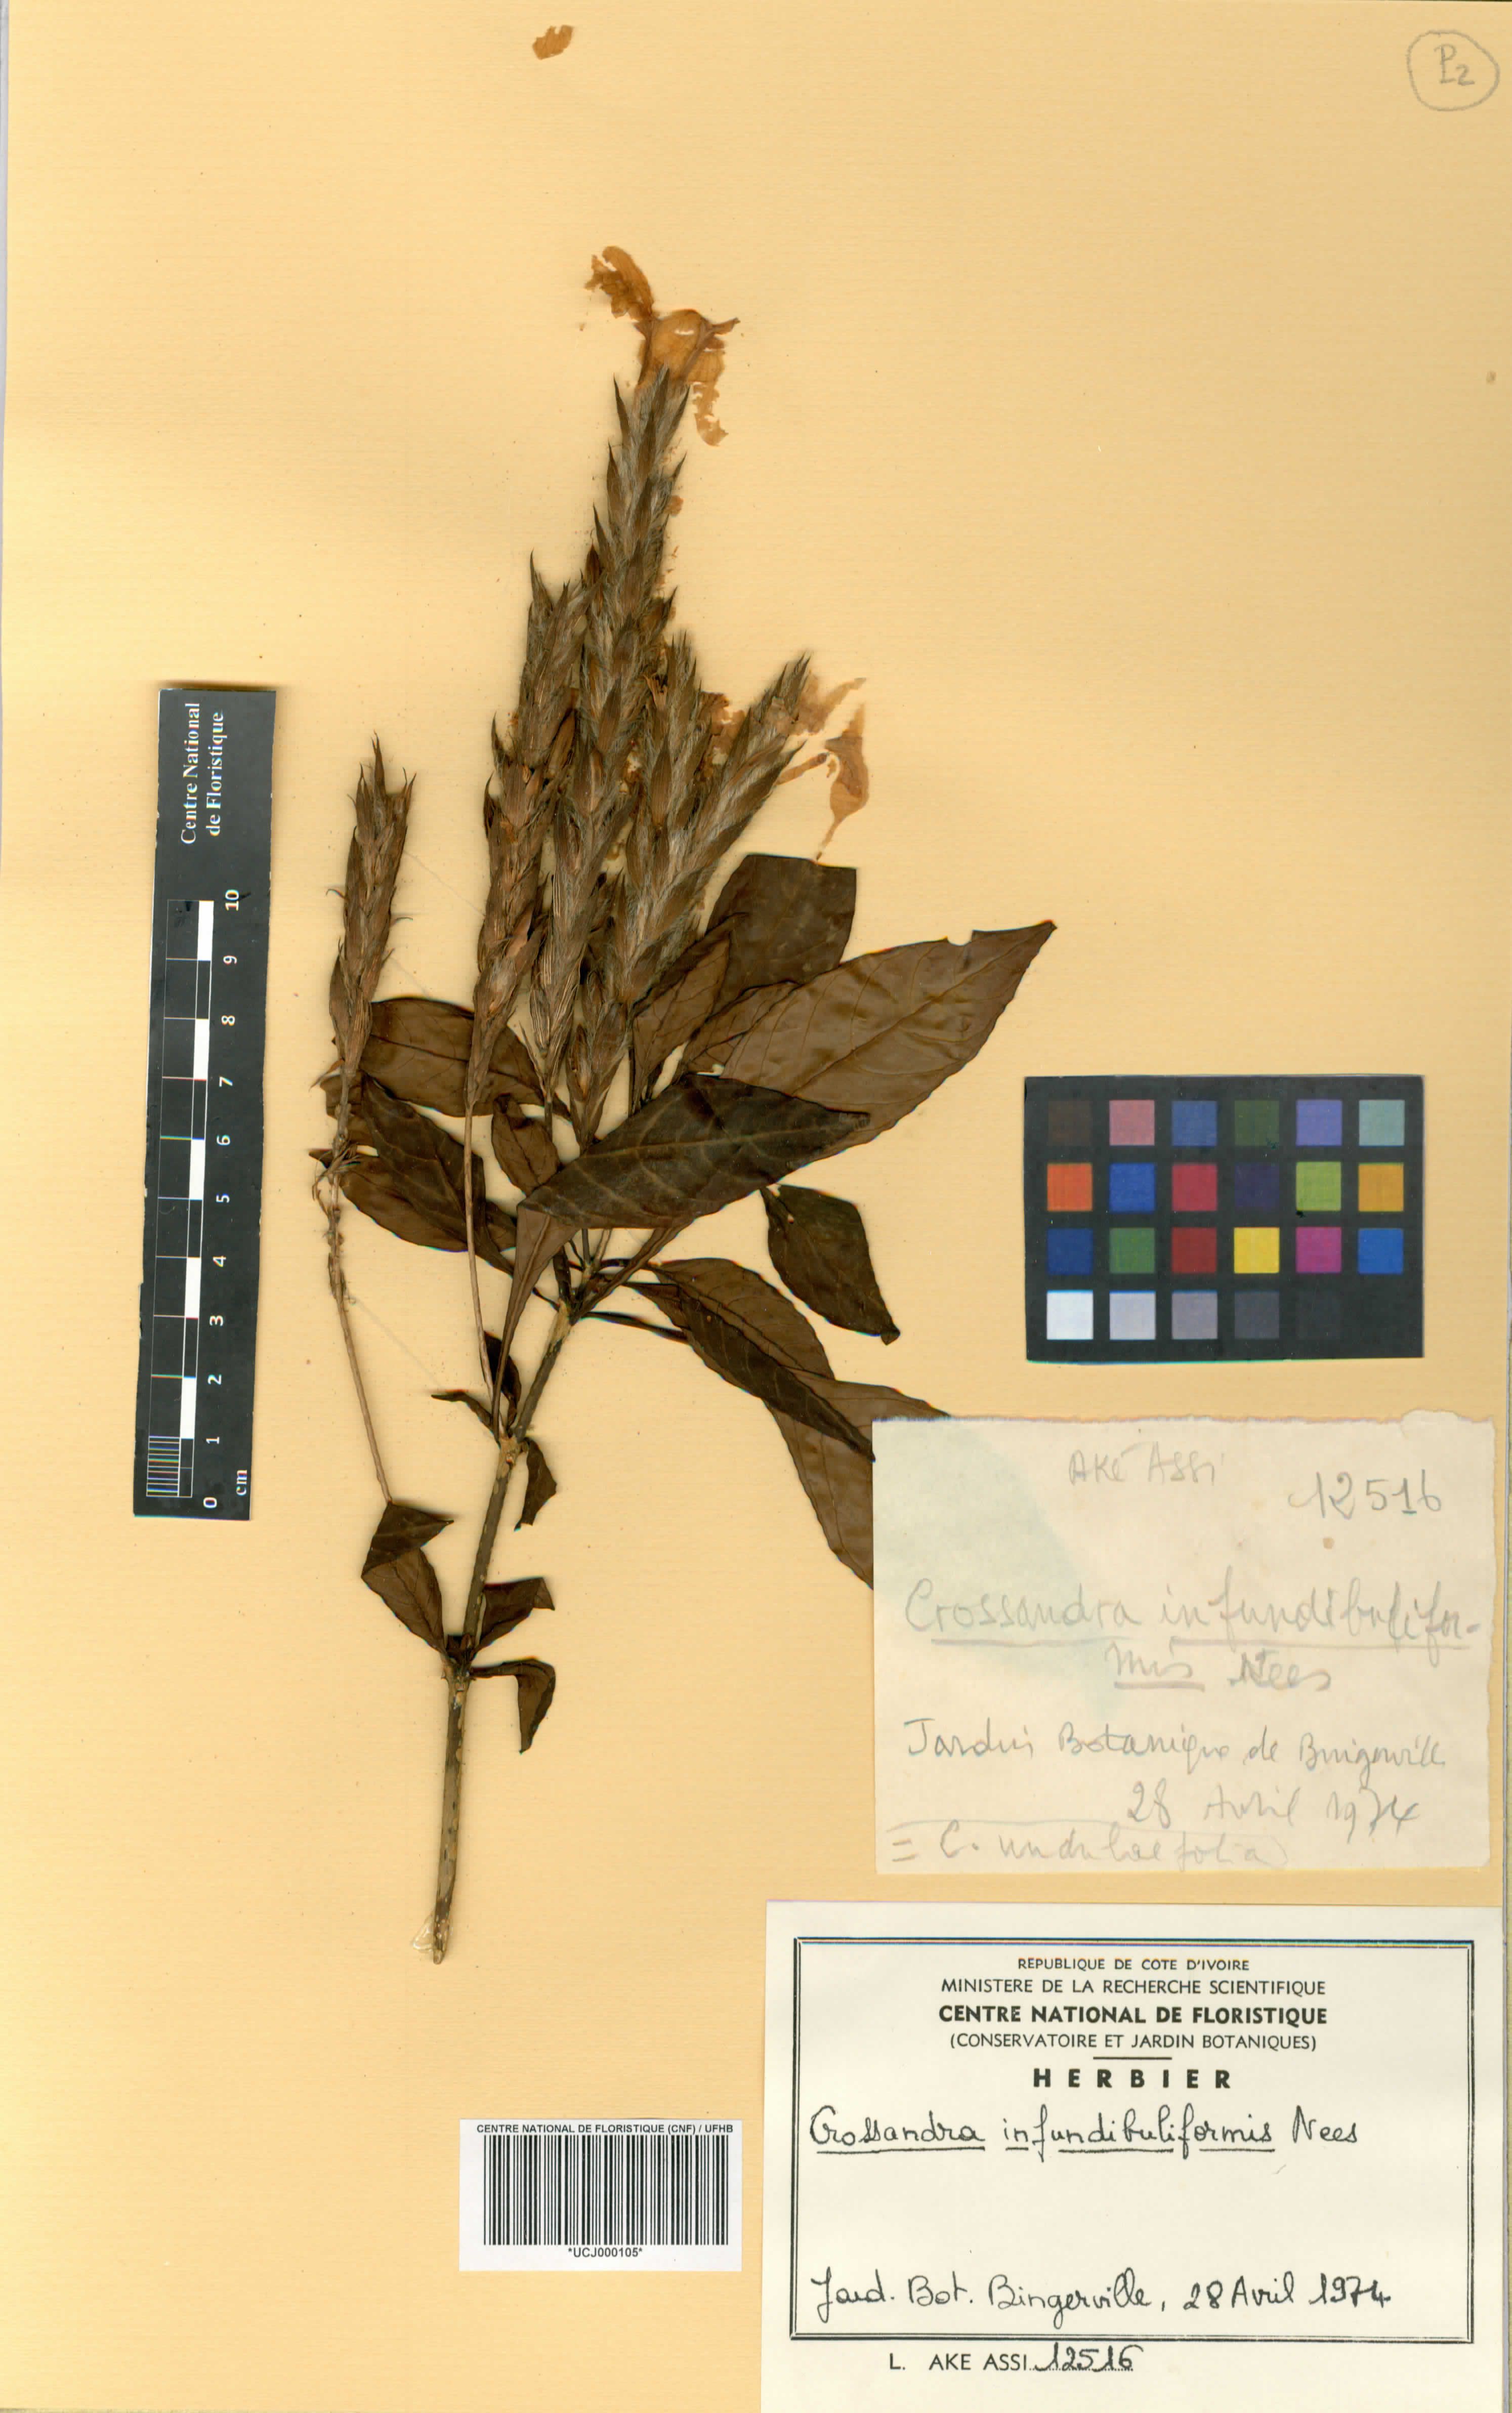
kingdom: Plantae
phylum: Tracheophyta
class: Magnoliopsida
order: Lamiales
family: Acanthaceae
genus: Crossandra
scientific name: Crossandra infundibuliformis
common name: Firecracker-flower
